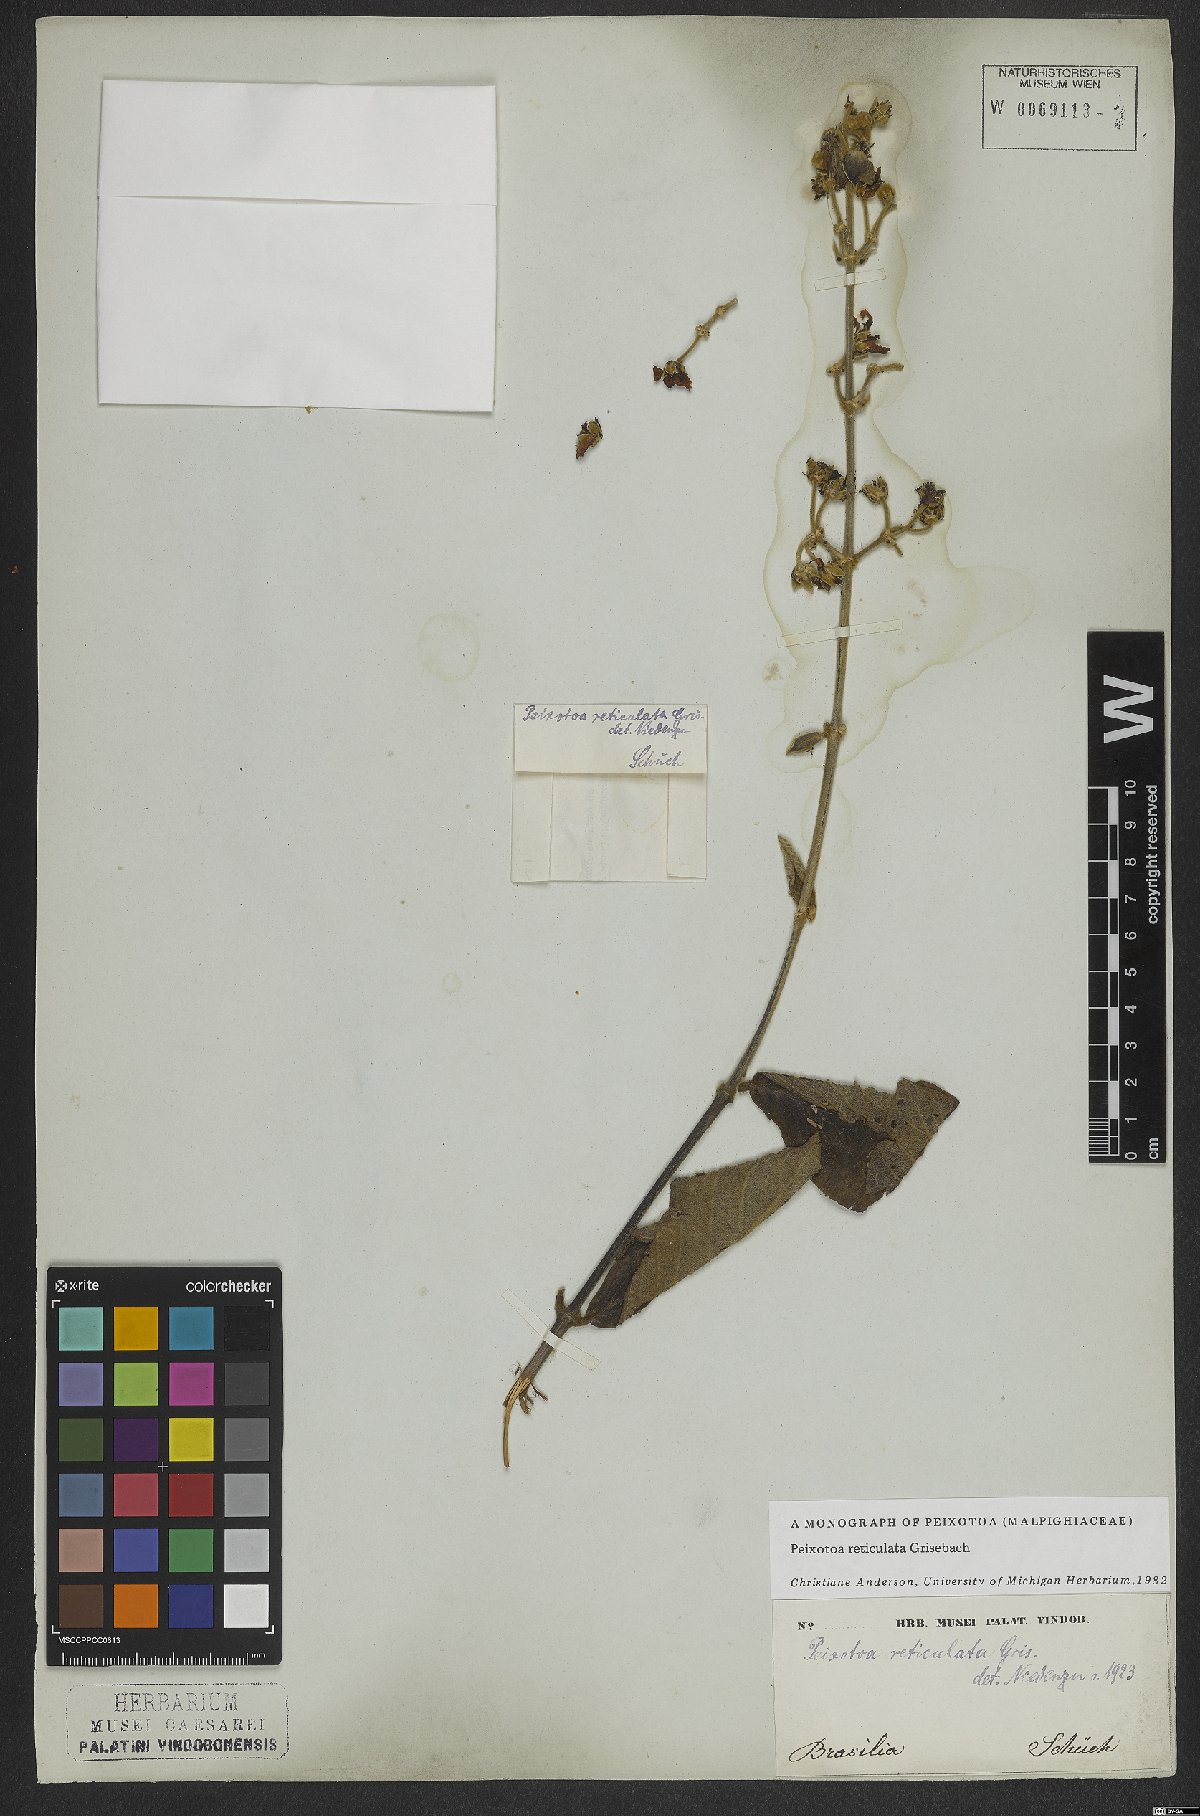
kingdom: Plantae
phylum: Tracheophyta
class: Magnoliopsida
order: Malpighiales
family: Malpighiaceae
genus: Peixotoa
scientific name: Peixotoa reticulata
